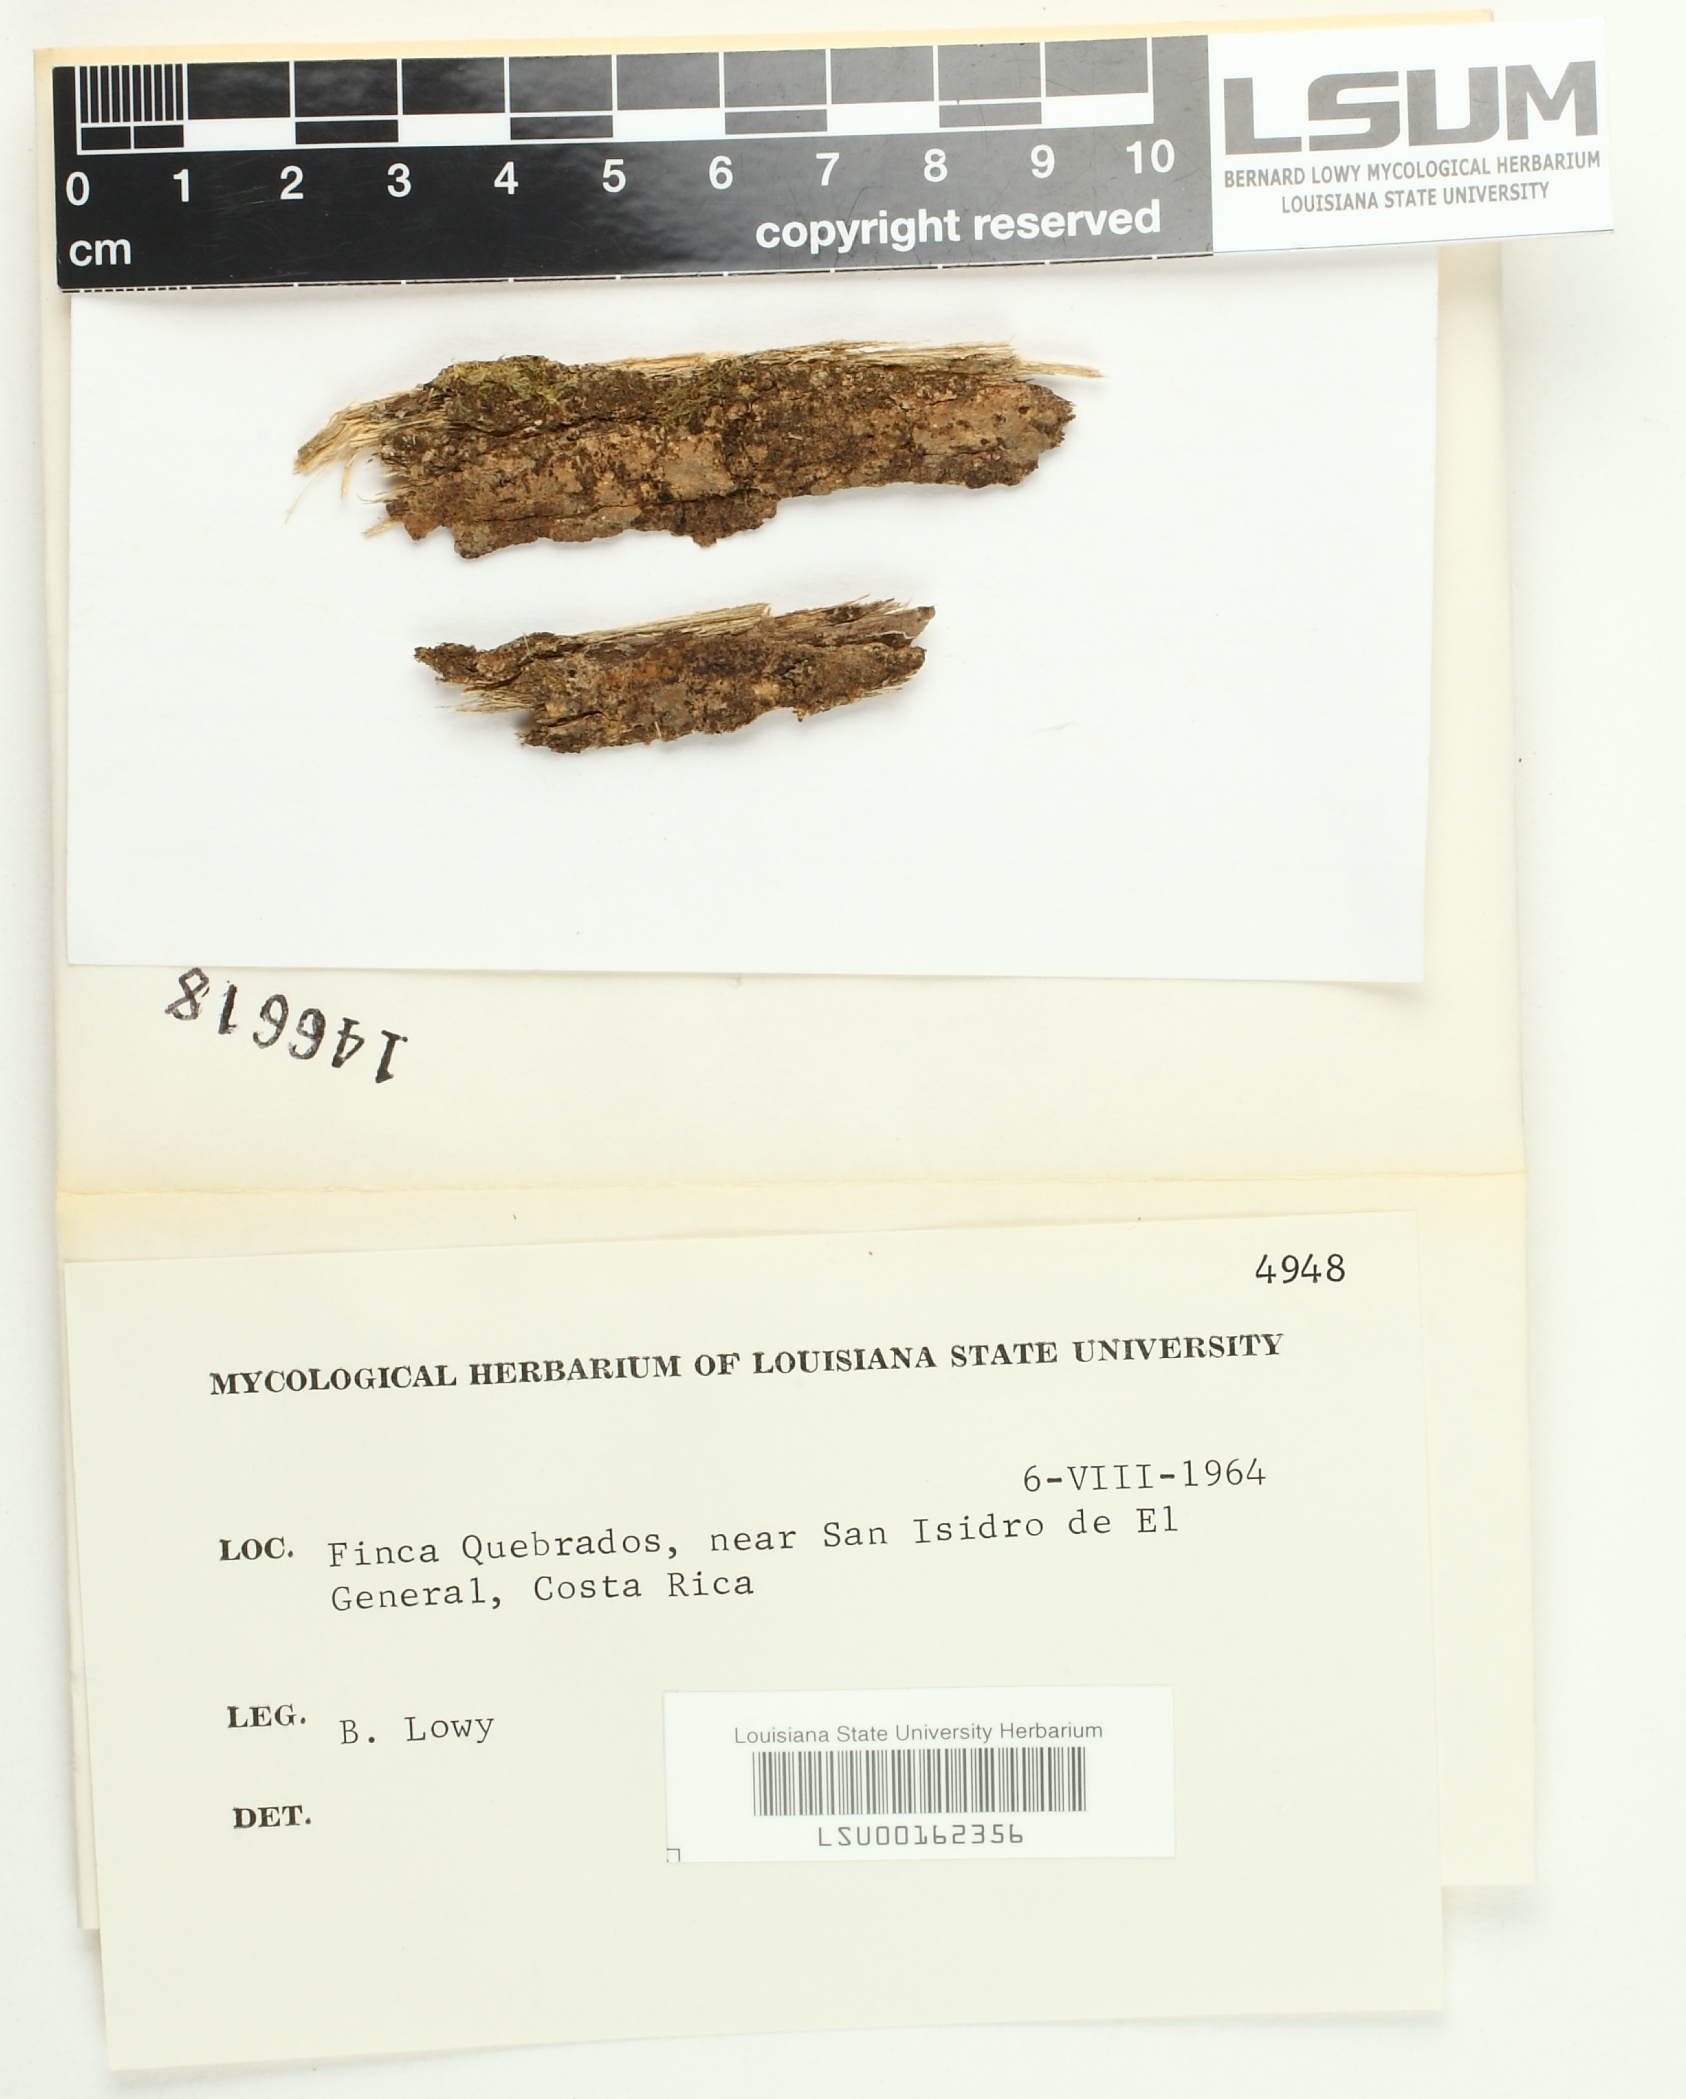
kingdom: Fungi
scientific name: Fungi
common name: Fungi
